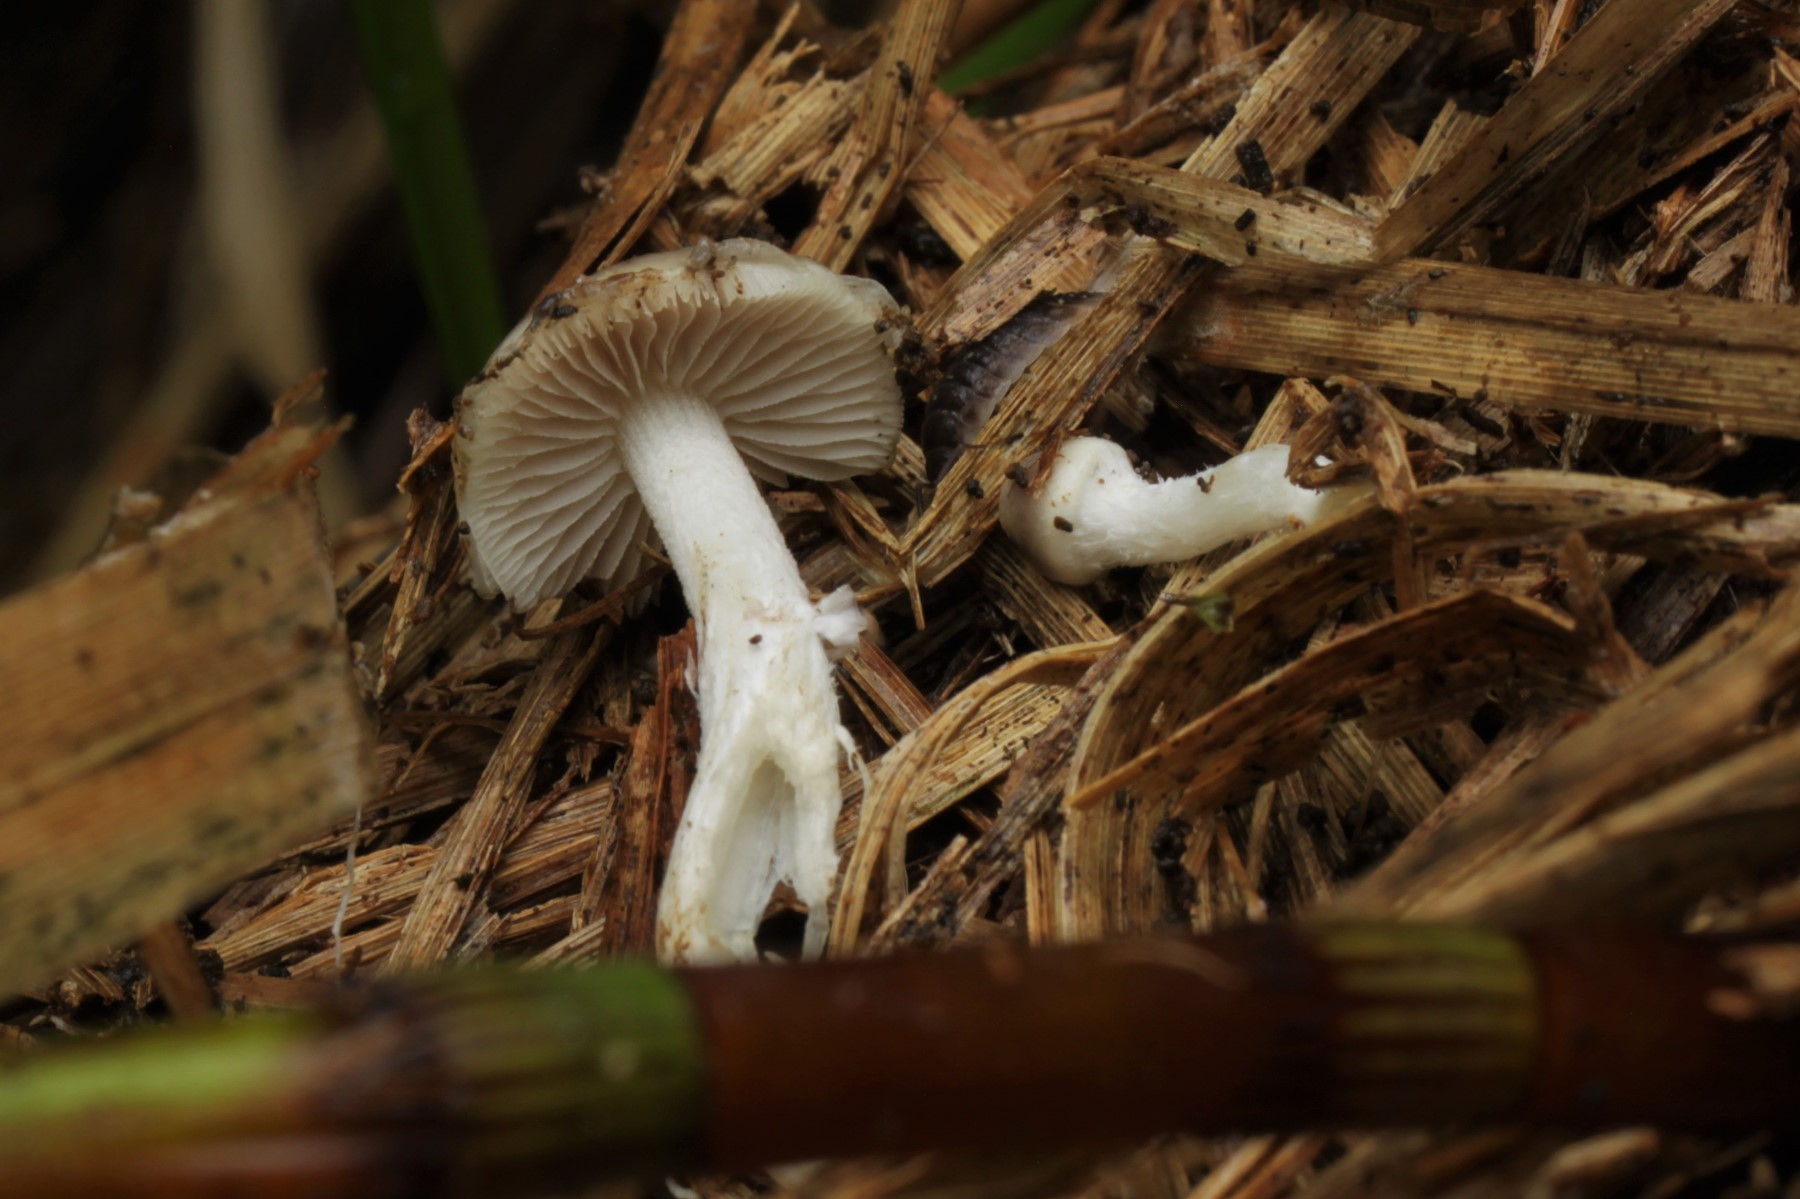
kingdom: Fungi
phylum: Basidiomycota
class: Agaricomycetes
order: Agaricales
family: Strophariaceae
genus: Stropharia
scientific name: Stropharia inuncta
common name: lillabrun bredblad
